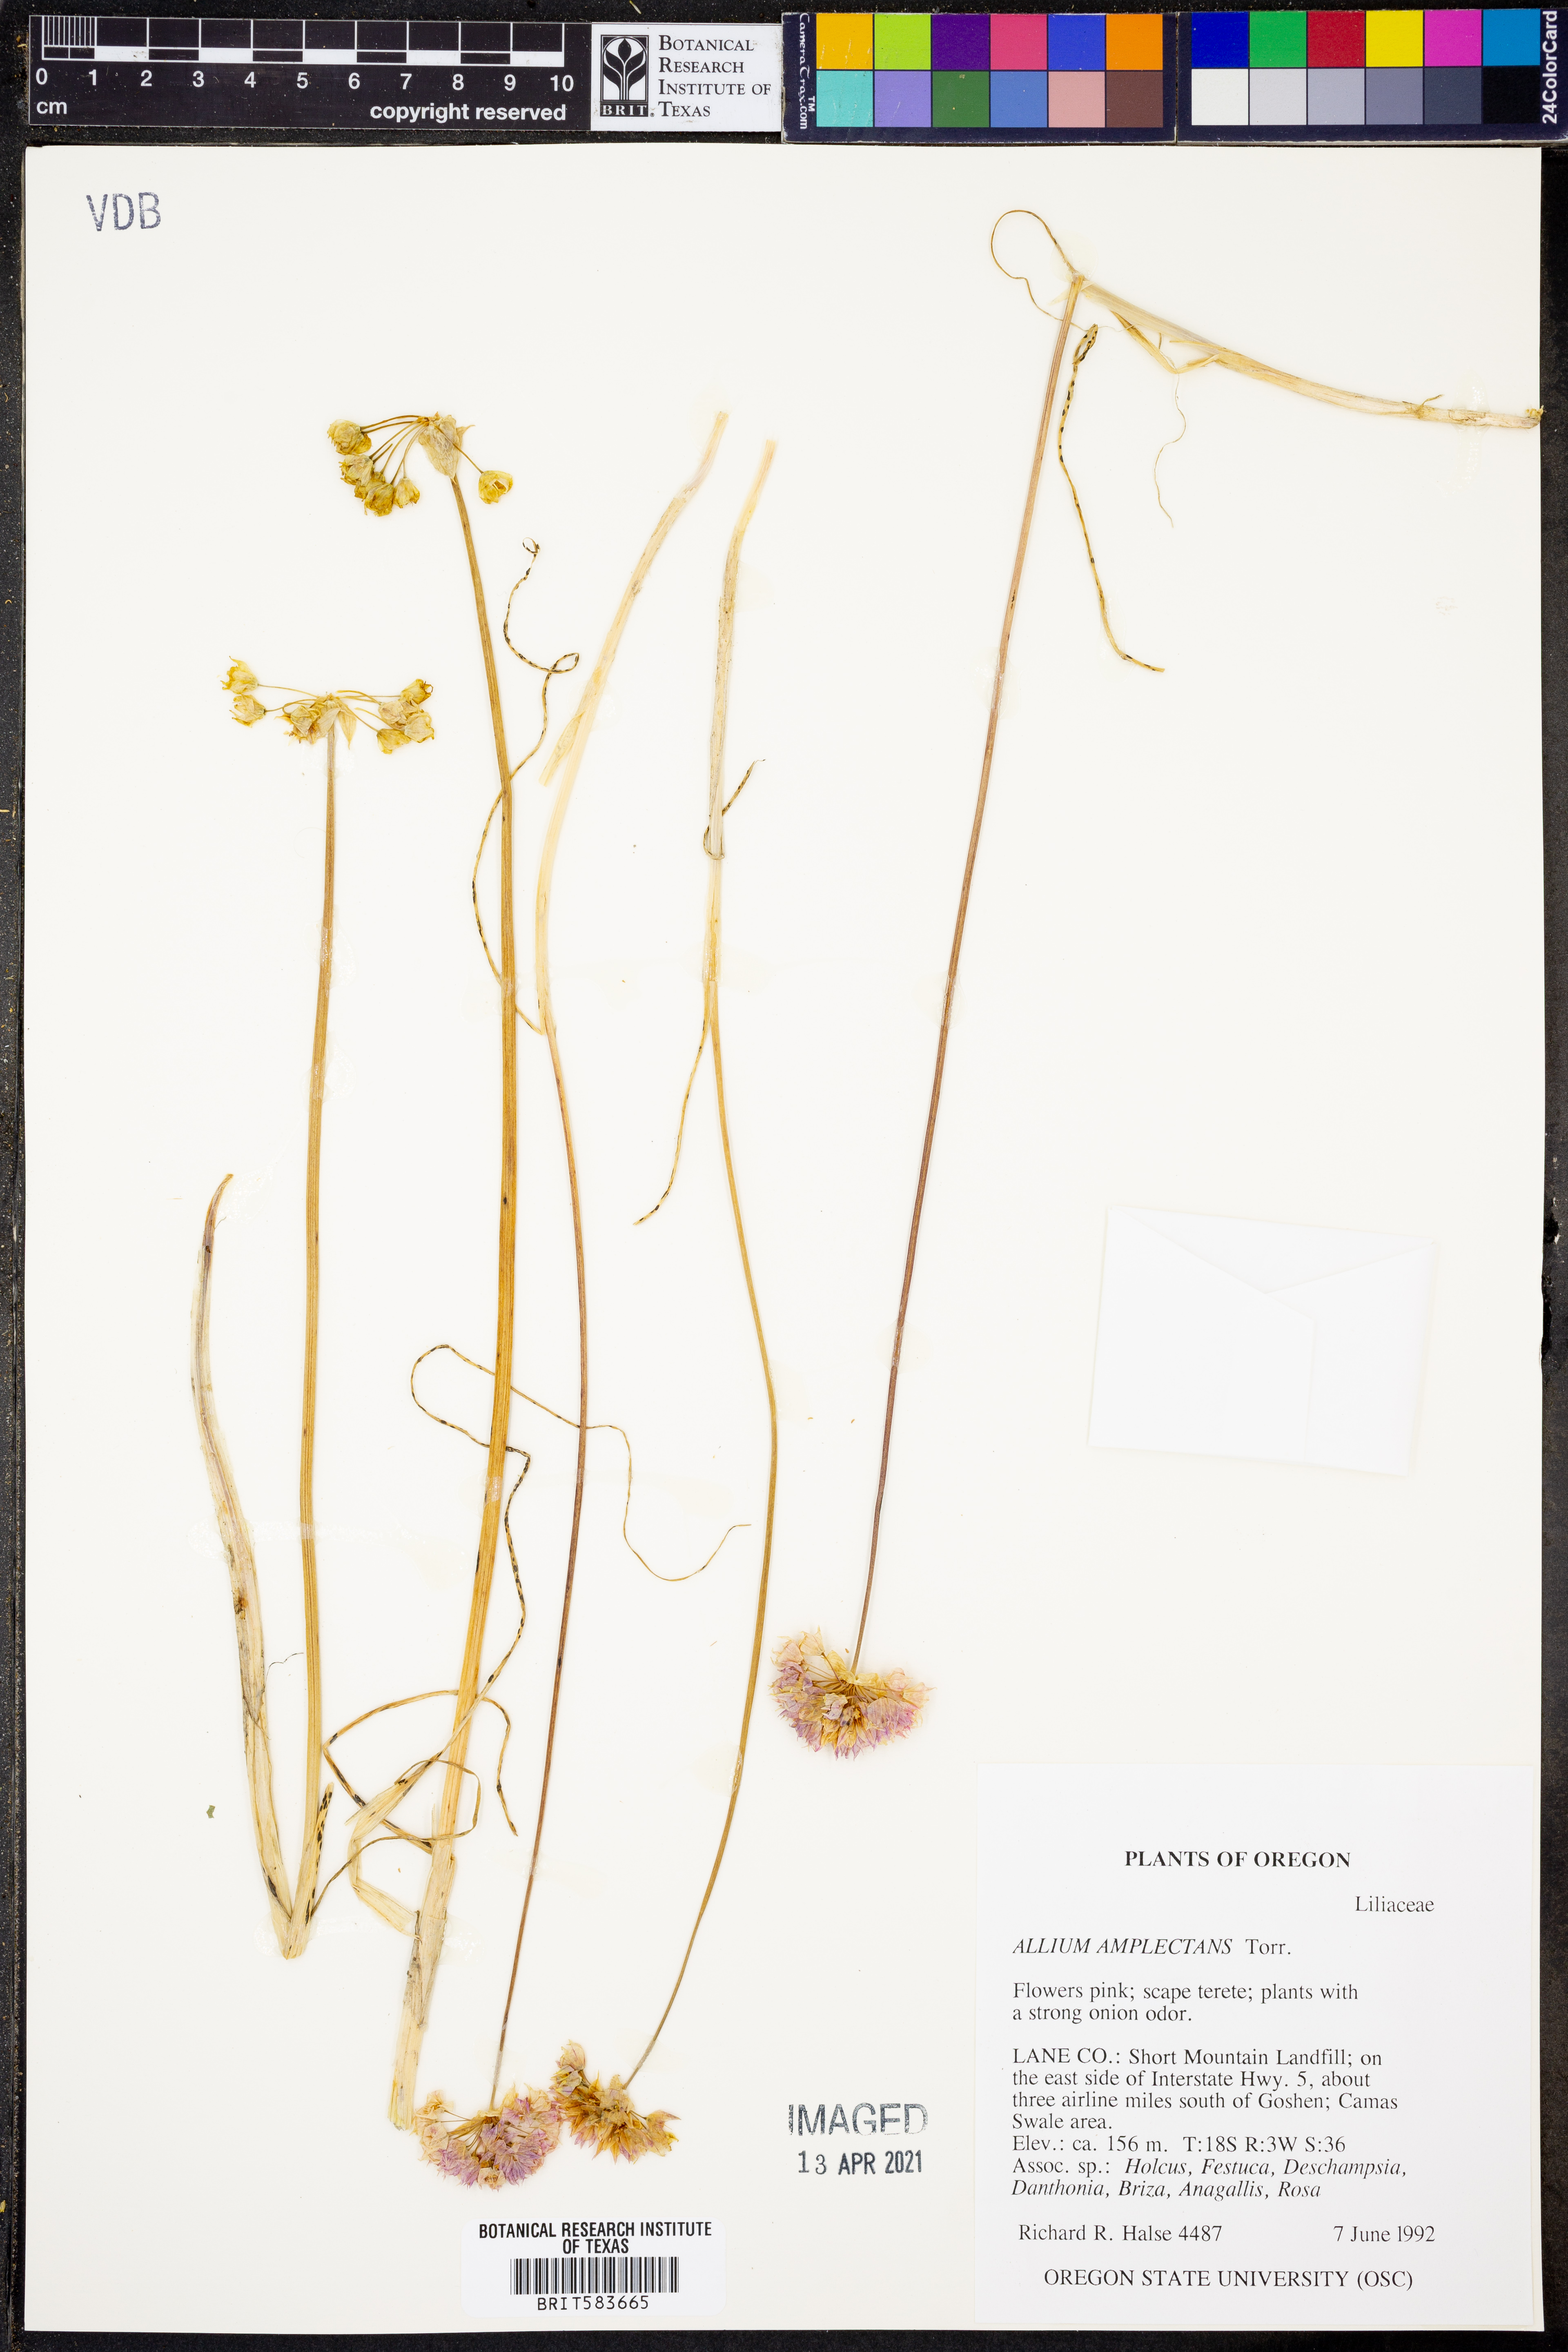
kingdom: Plantae
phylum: Tracheophyta
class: Liliopsida
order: Asparagales
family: Amaryllidaceae
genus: Allium
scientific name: Allium amplectens
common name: Narrow-leaved onion
